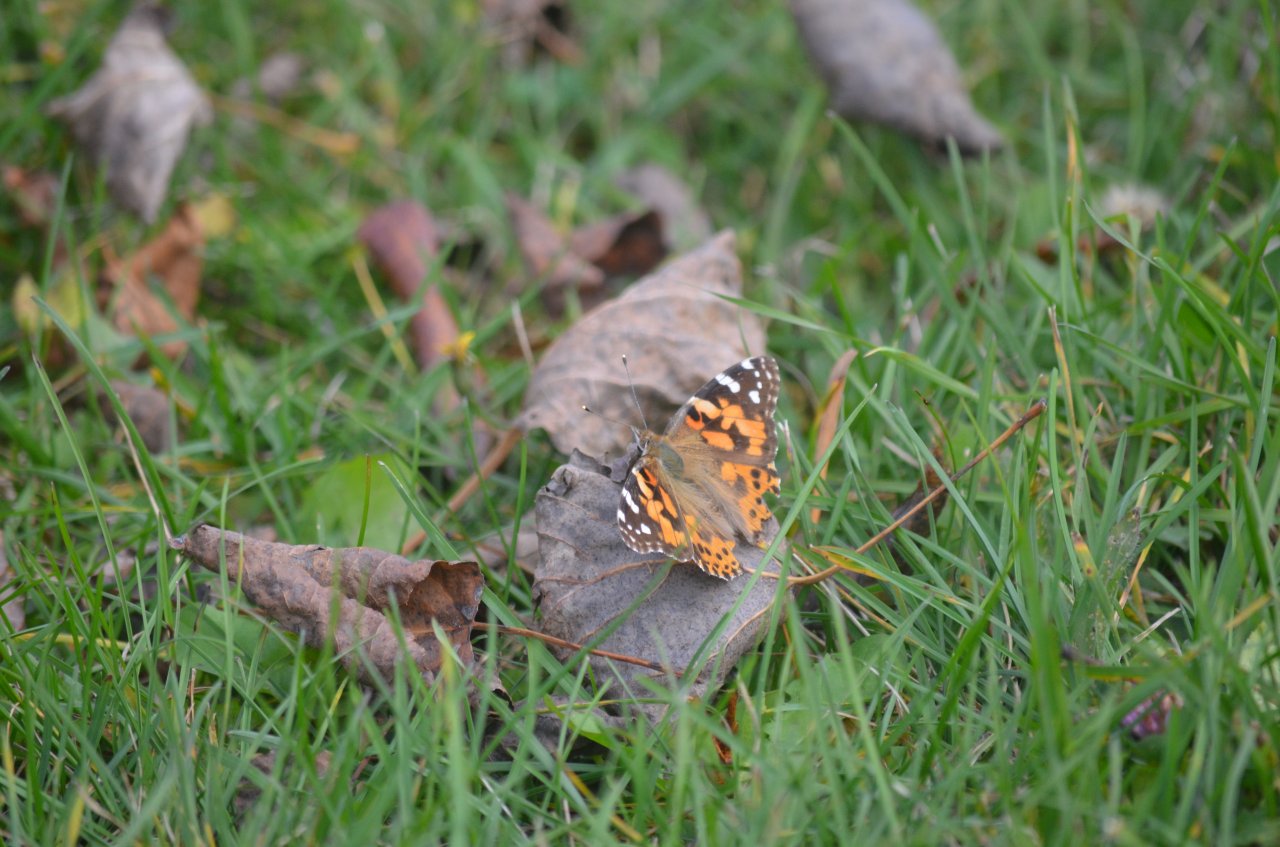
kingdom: Animalia
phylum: Arthropoda
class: Insecta
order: Lepidoptera
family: Nymphalidae
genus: Vanessa
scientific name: Vanessa cardui
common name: Painted Lady
